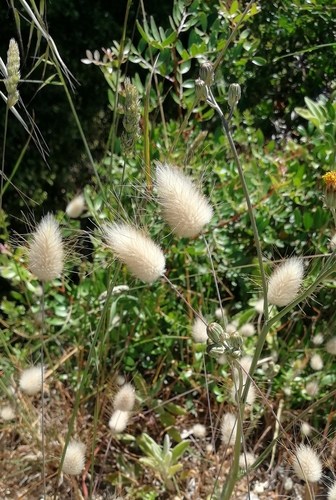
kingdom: Plantae
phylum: Tracheophyta
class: Liliopsida
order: Poales
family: Poaceae
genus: Lagurus
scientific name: Lagurus ovatus
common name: Hare's-tail
